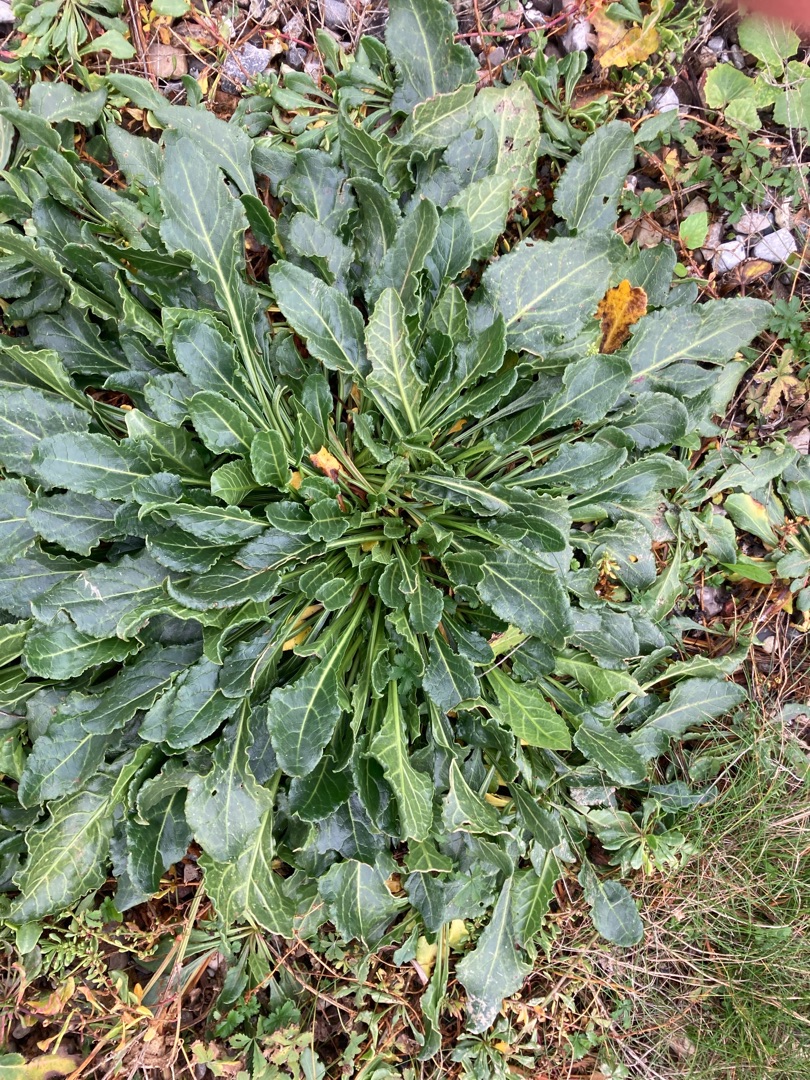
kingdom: Plantae
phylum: Tracheophyta
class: Magnoliopsida
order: Caryophyllales
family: Amaranthaceae
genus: Beta
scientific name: Beta maritima
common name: Strand-bede
